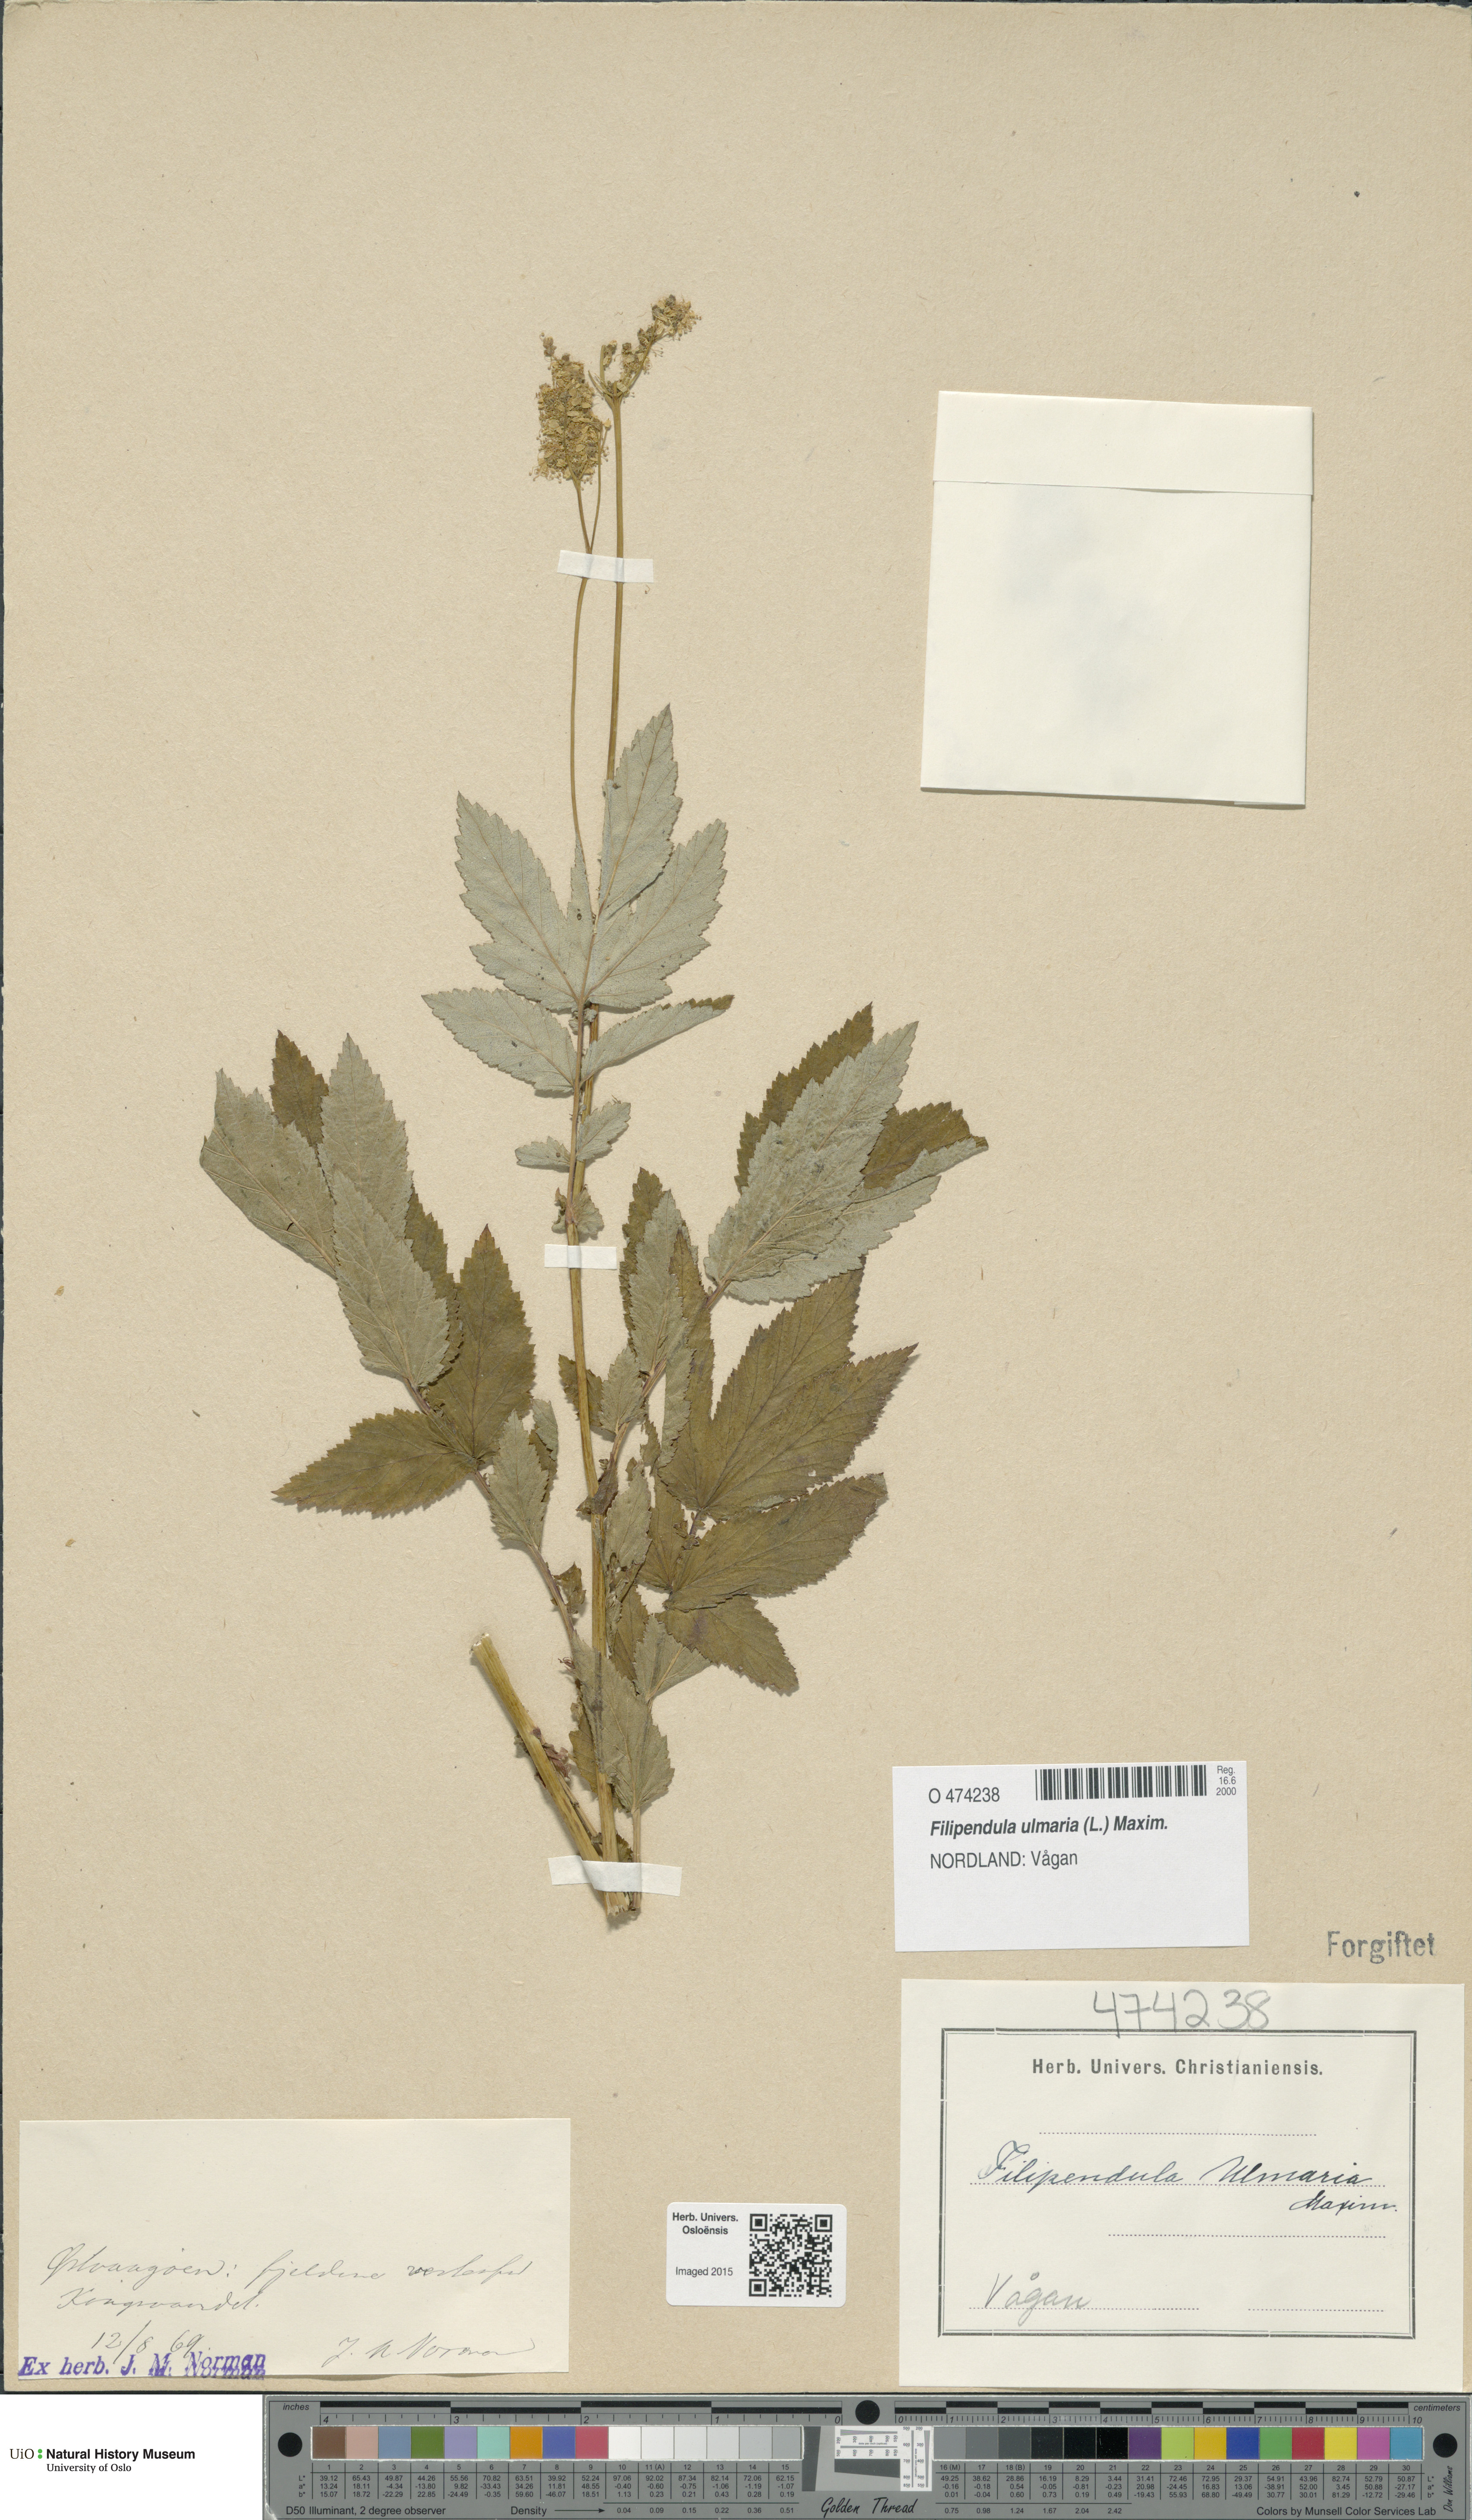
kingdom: Plantae
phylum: Tracheophyta
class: Magnoliopsida
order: Rosales
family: Rosaceae
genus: Filipendula
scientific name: Filipendula ulmaria
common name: Meadowsweet
